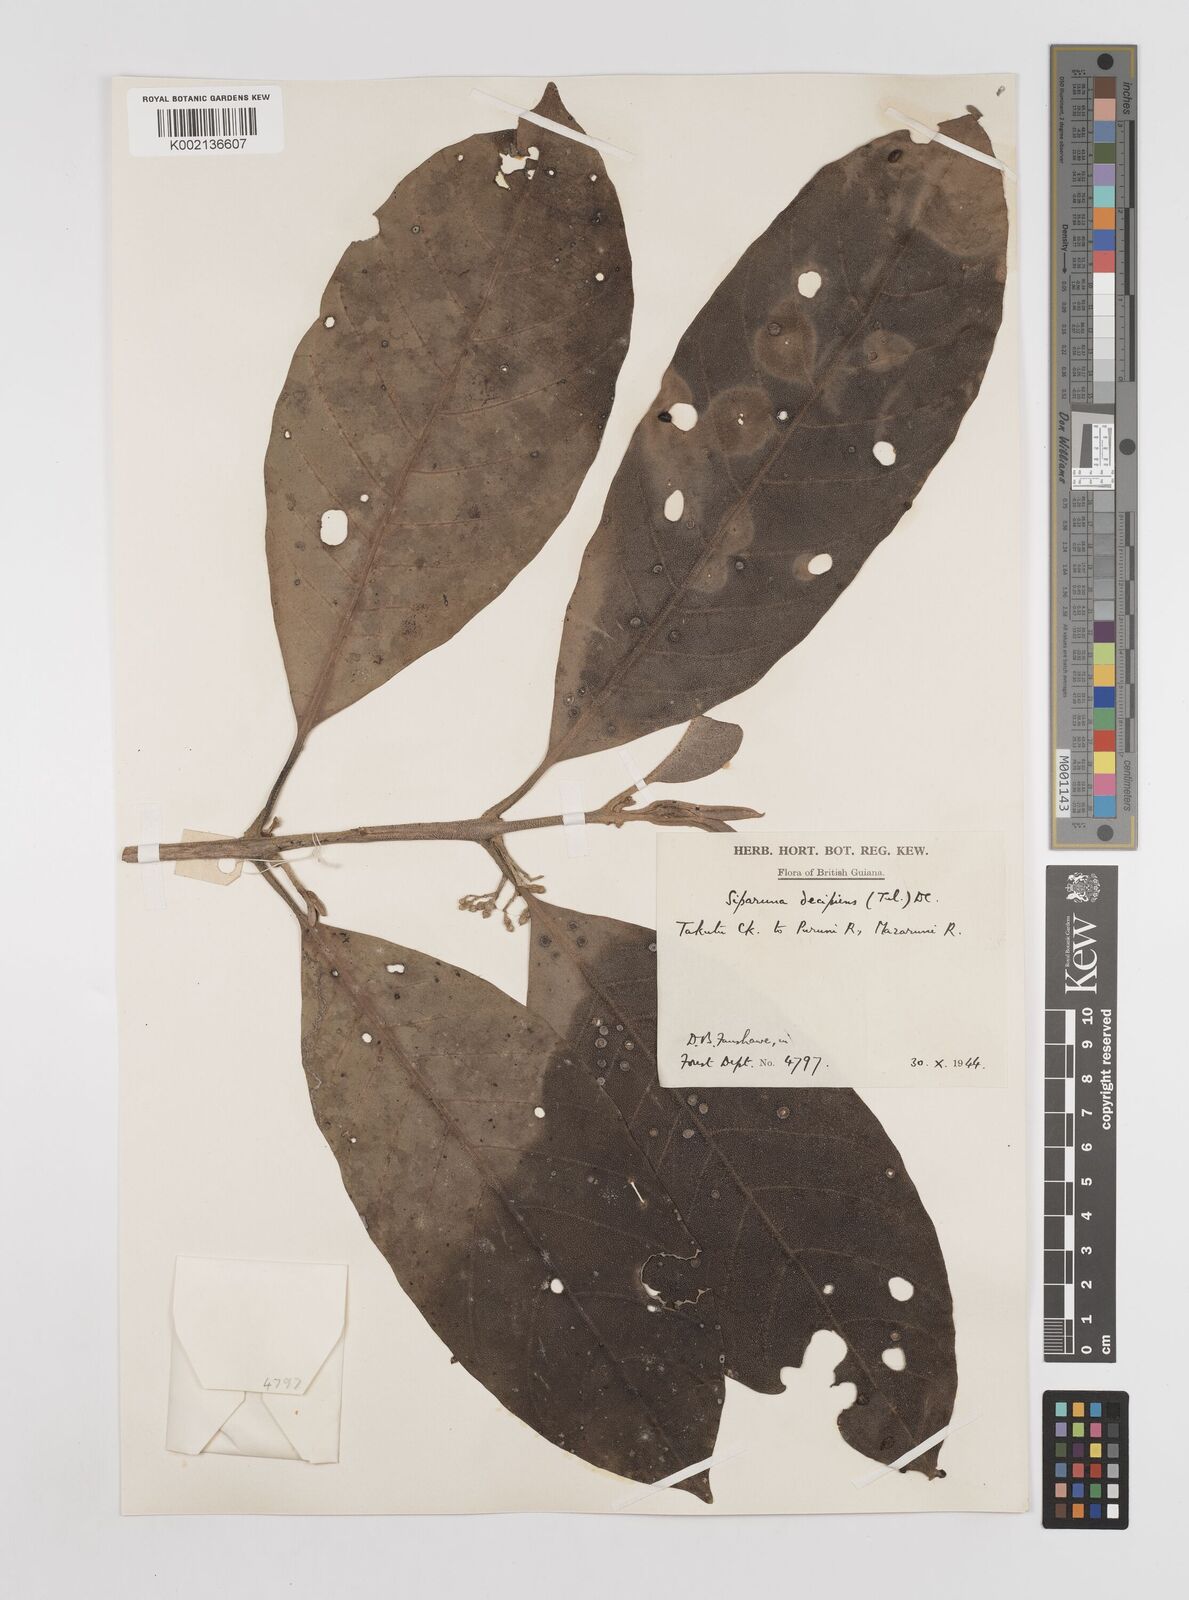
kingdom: Plantae
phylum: Tracheophyta
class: Magnoliopsida
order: Laurales
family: Siparunaceae
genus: Siparuna
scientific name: Siparuna decipiens
